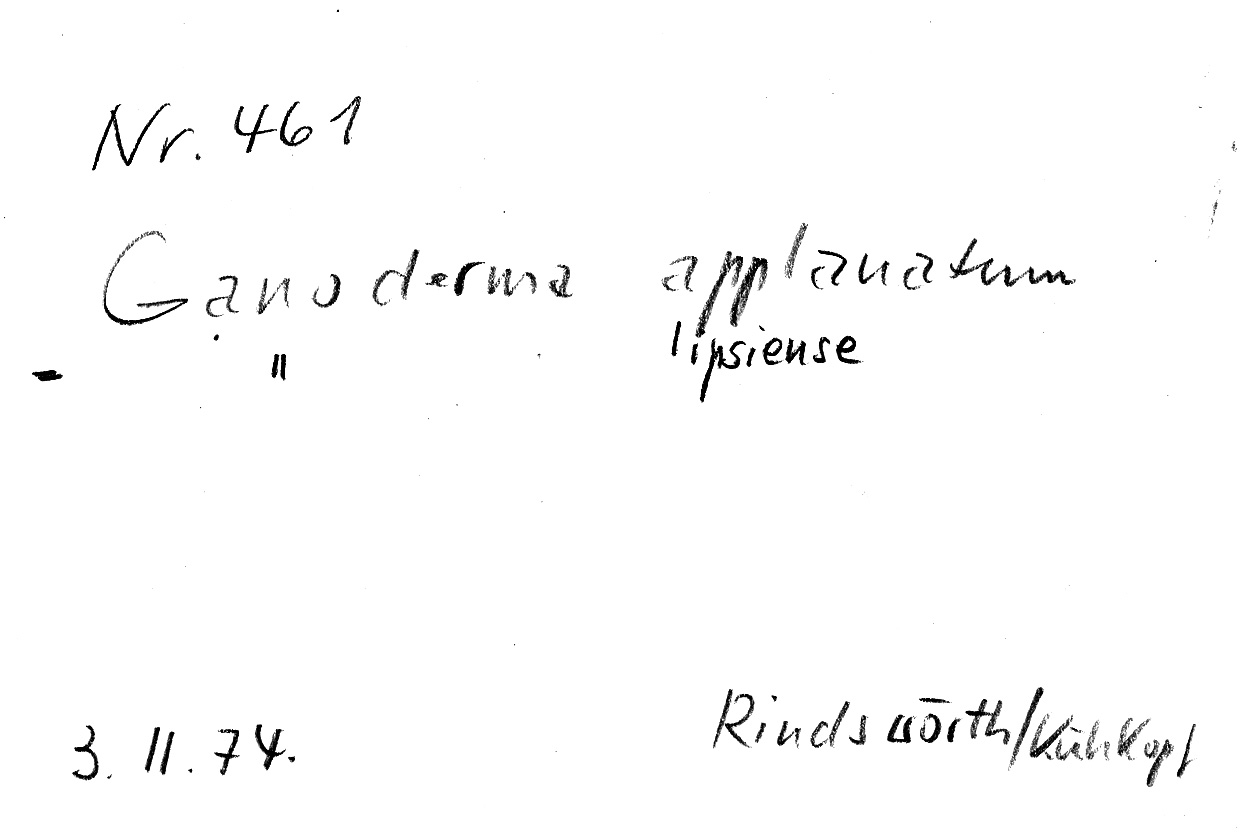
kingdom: Fungi
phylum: Basidiomycota
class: Agaricomycetes
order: Polyporales
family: Polyporaceae
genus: Ganoderma
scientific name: Ganoderma applanatum
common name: Artist's bracket
